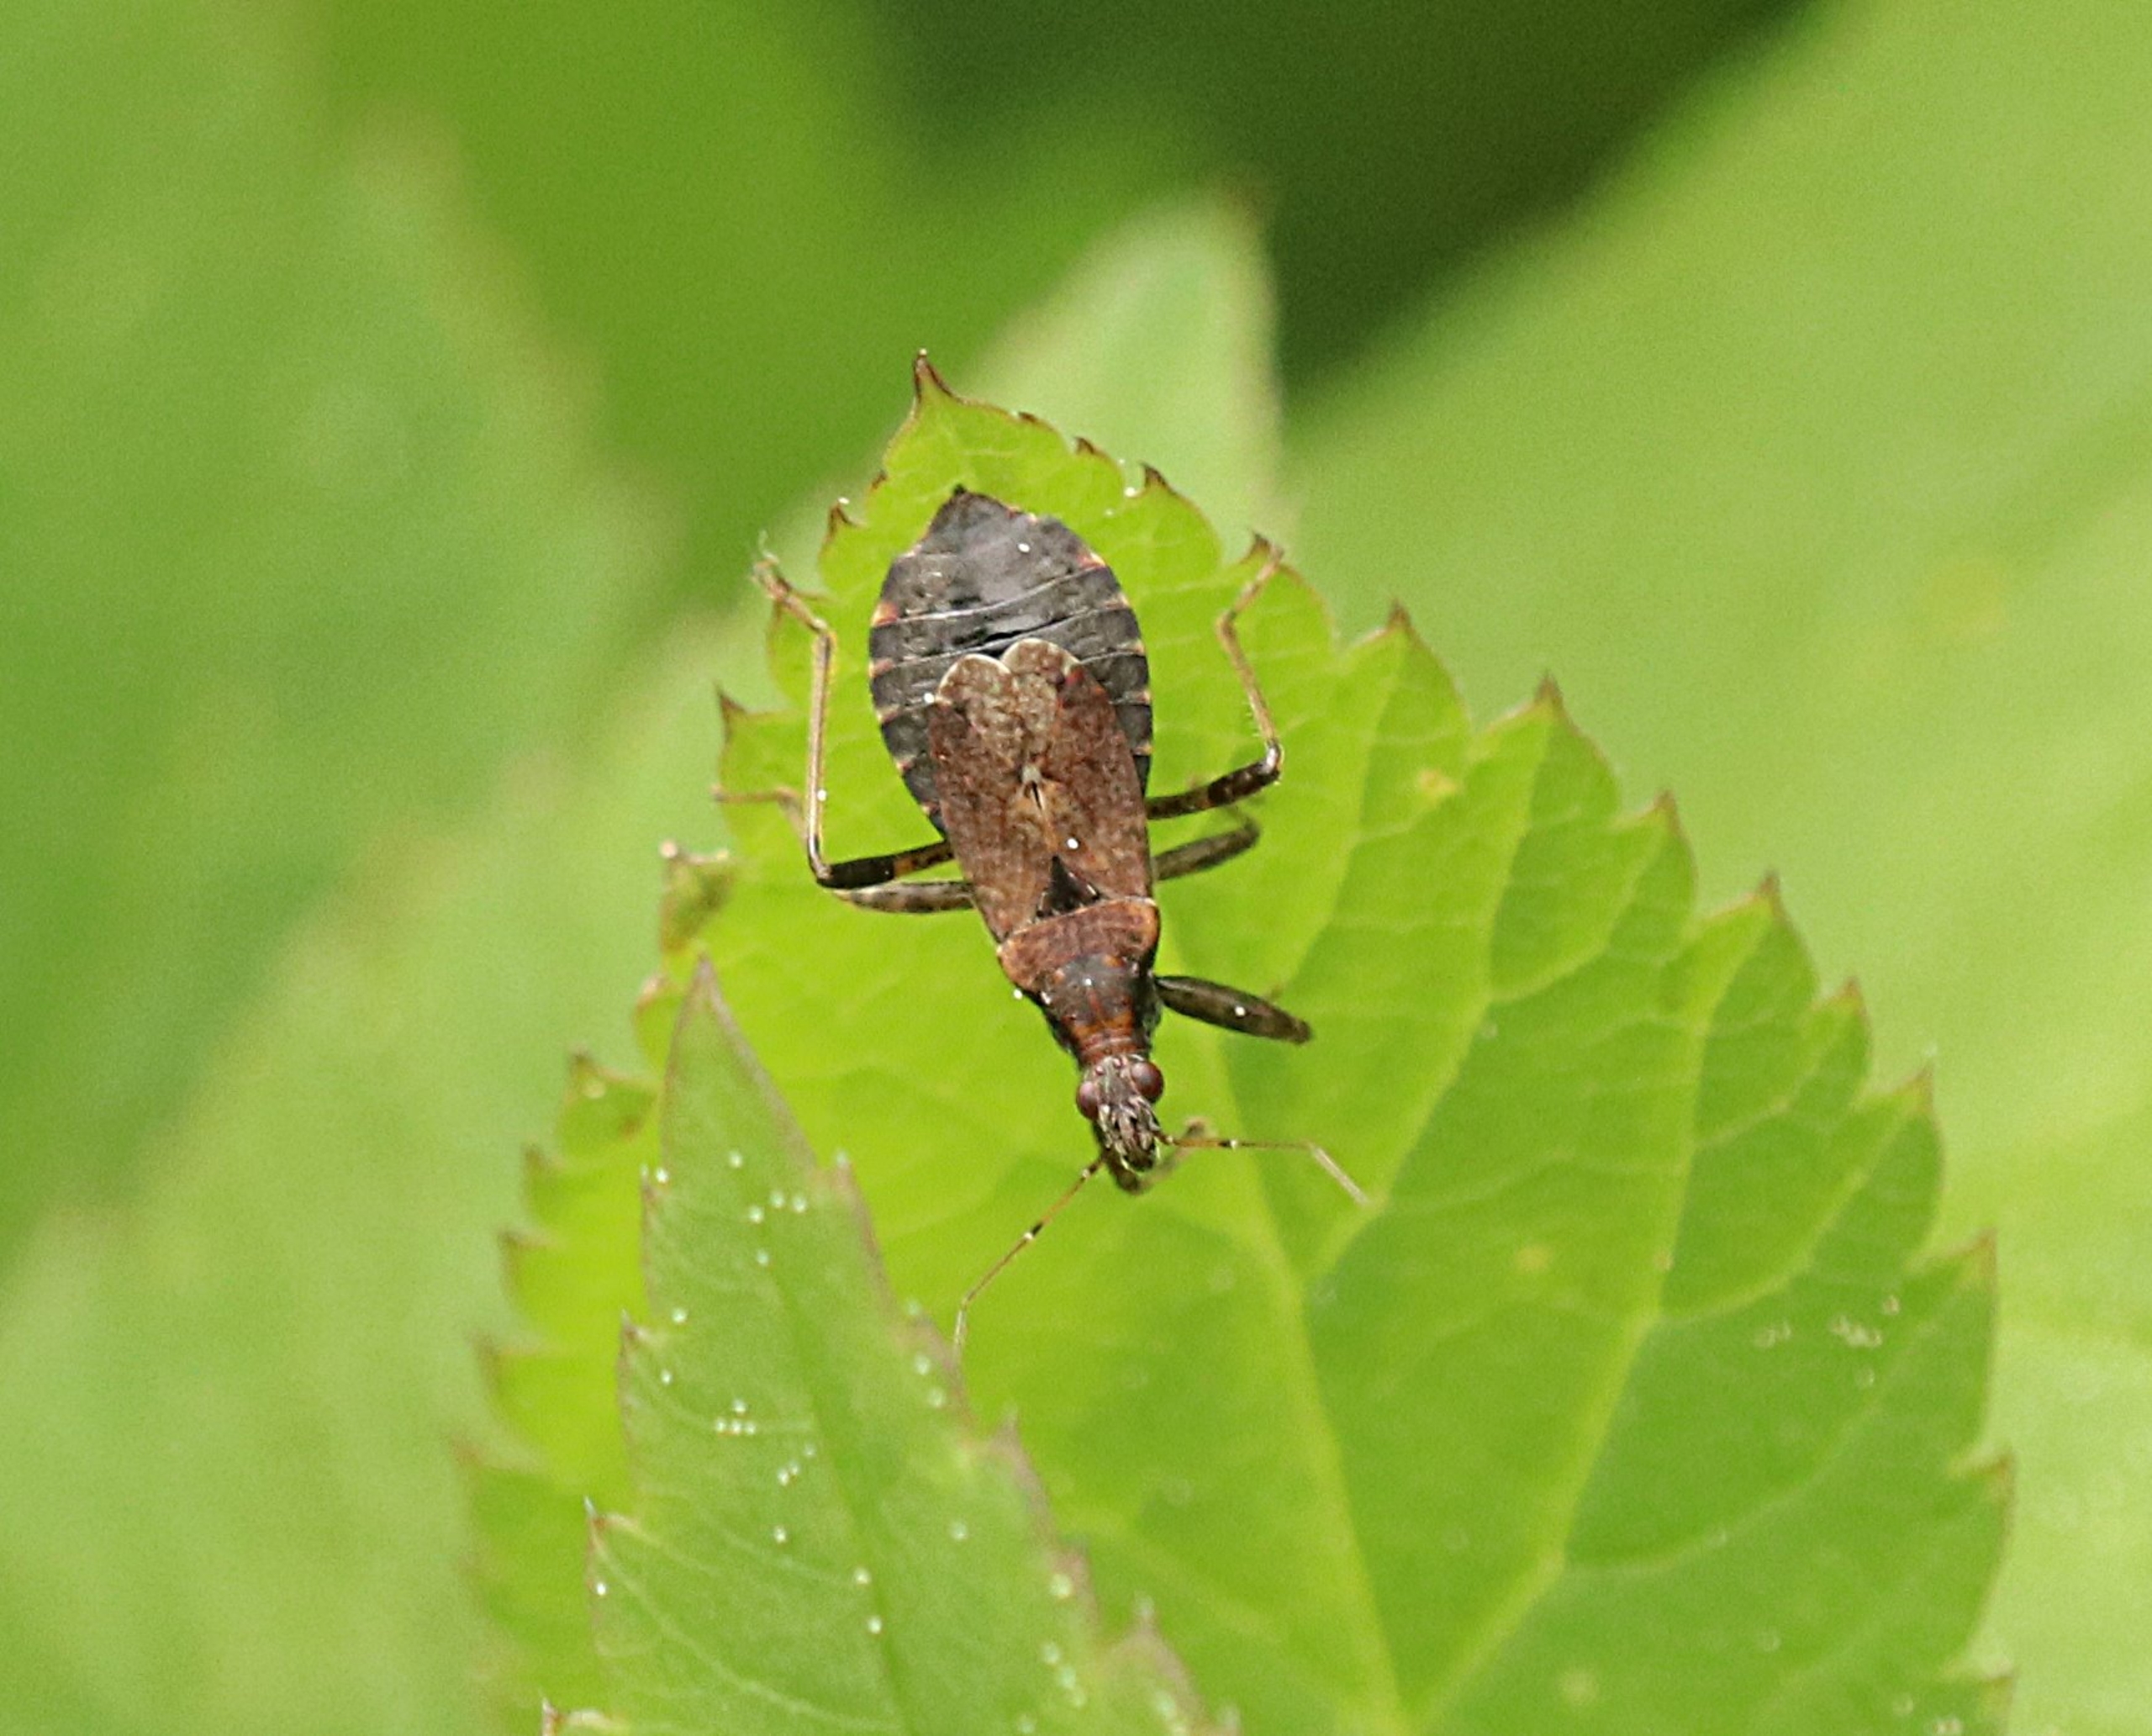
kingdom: Animalia
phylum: Arthropoda
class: Insecta
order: Hemiptera
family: Nabidae
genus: Himacerus
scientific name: Himacerus mirmicoides
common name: Myrenymfetæge
